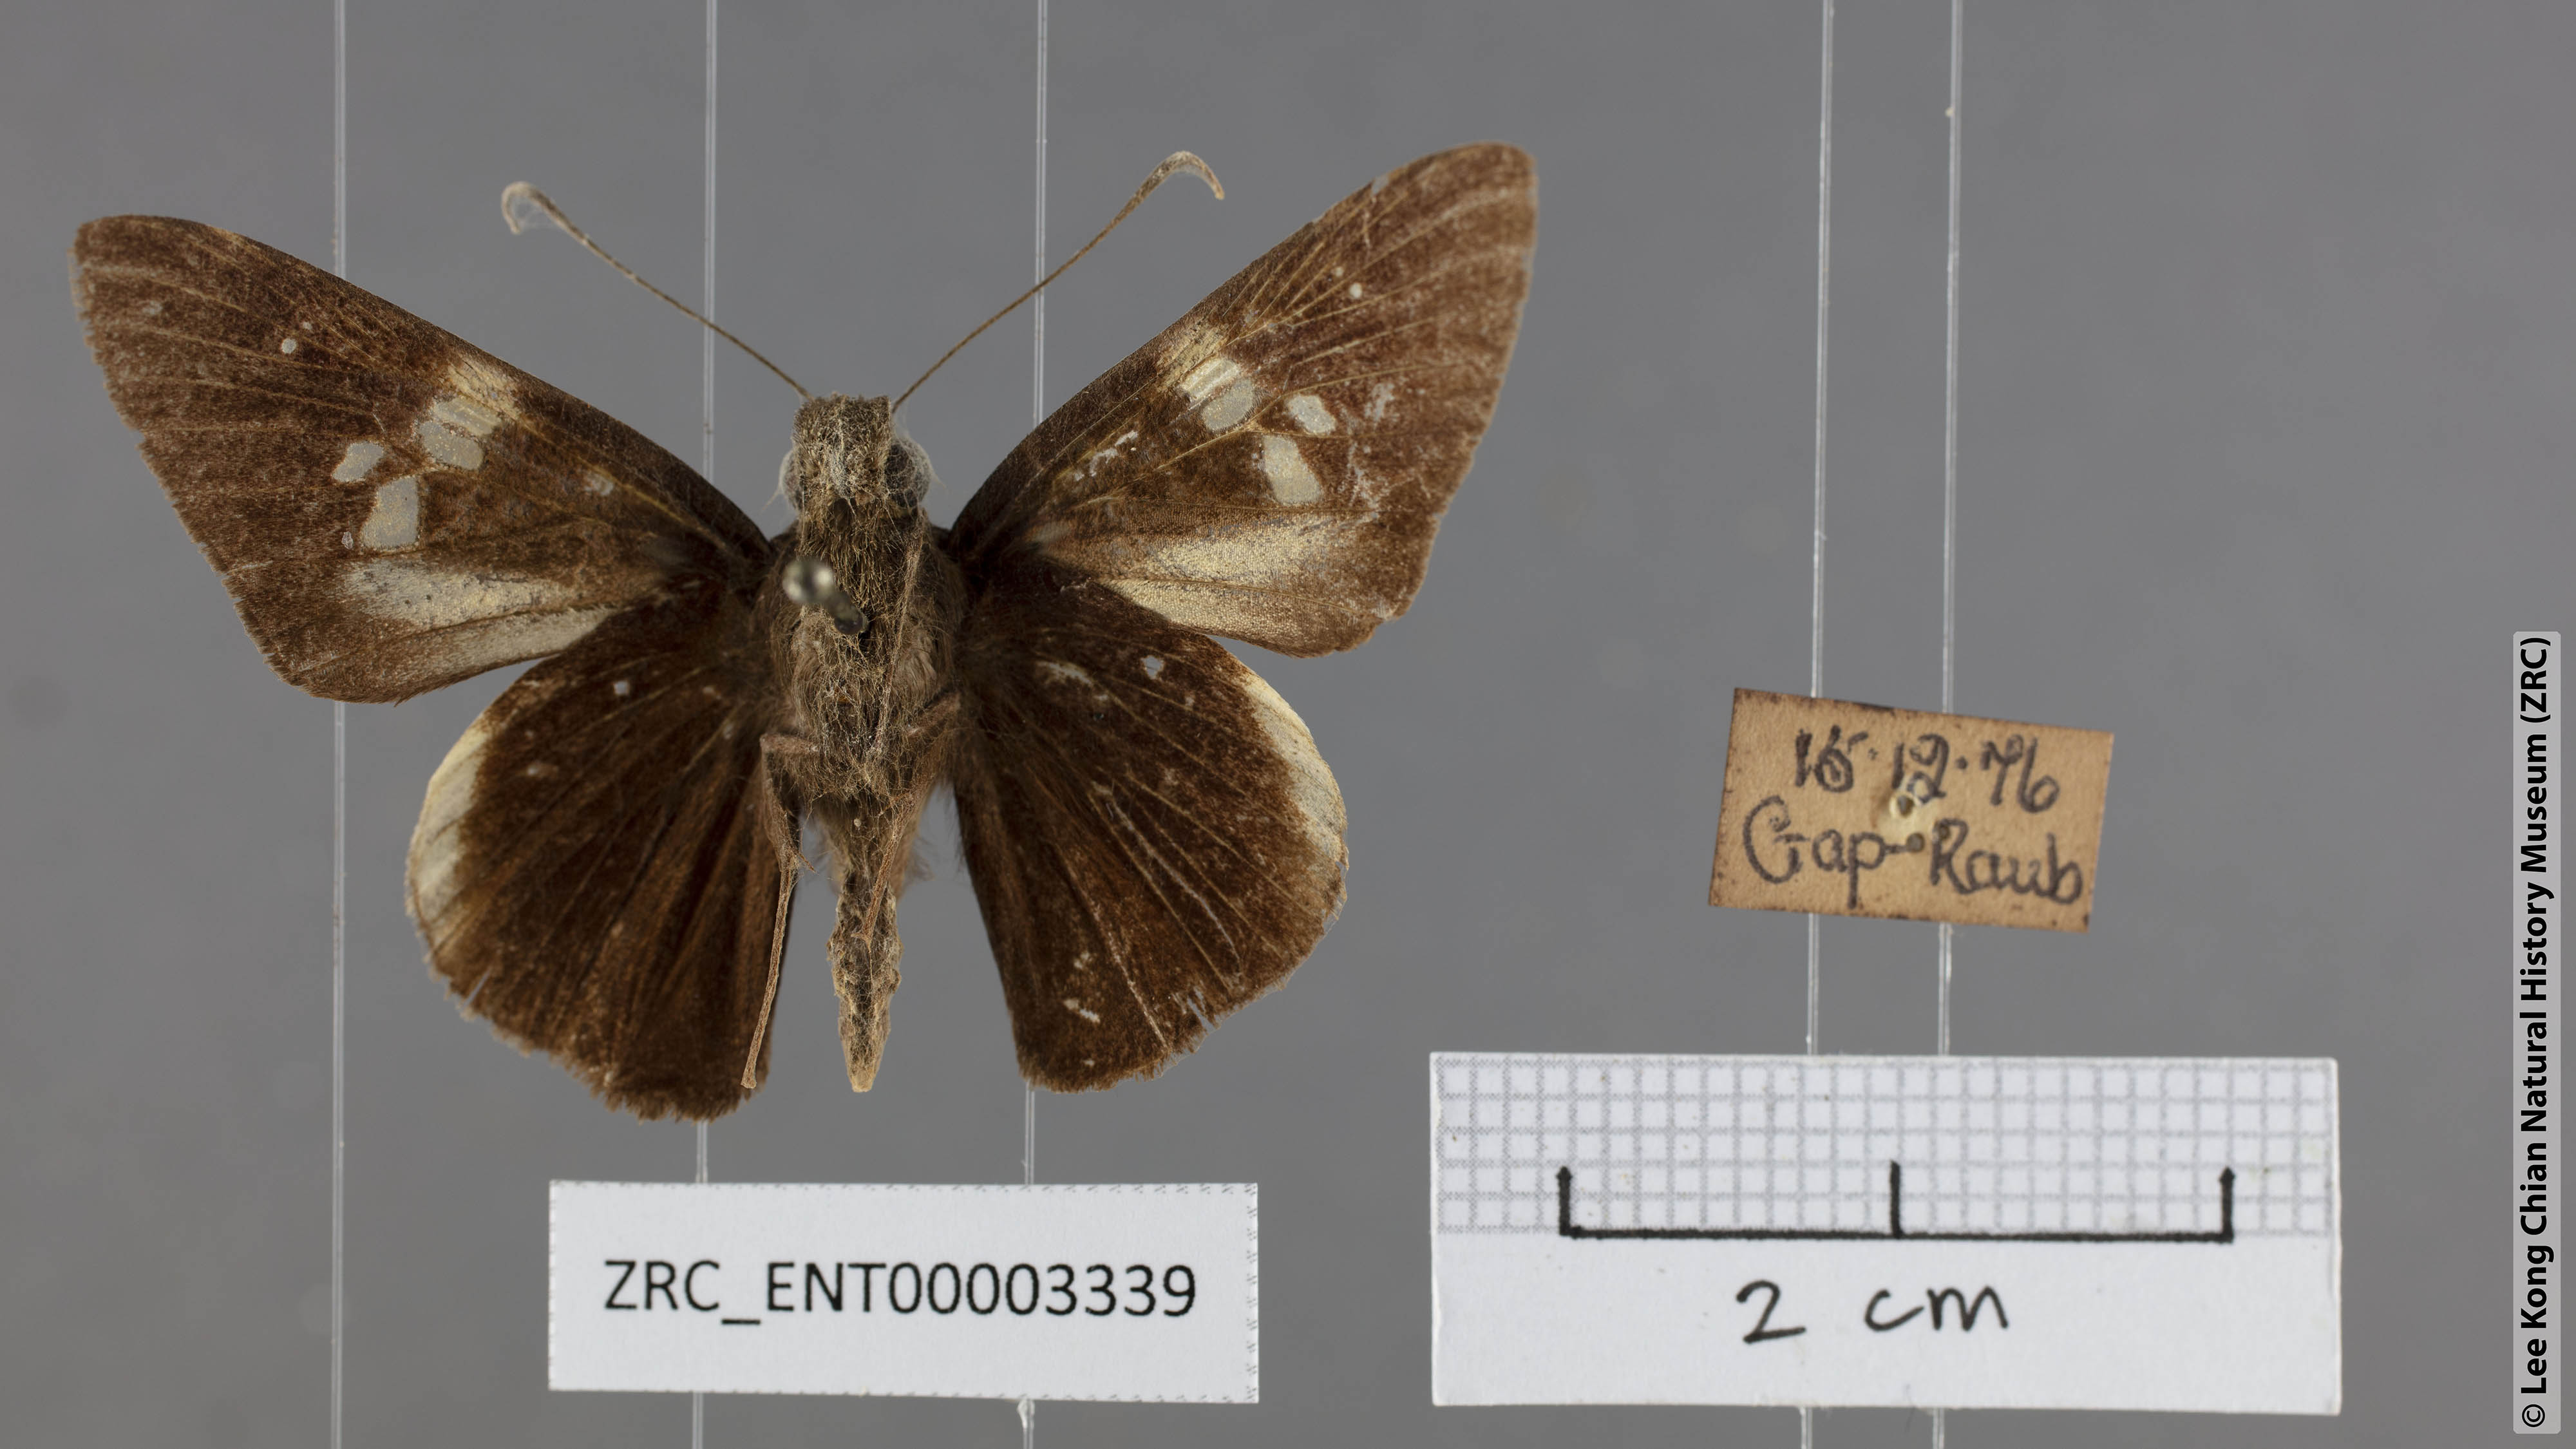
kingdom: Animalia
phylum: Arthropoda
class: Insecta
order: Lepidoptera
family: Hesperiidae
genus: Lotongus
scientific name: Lotongus calathus
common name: White-tipped palmer
